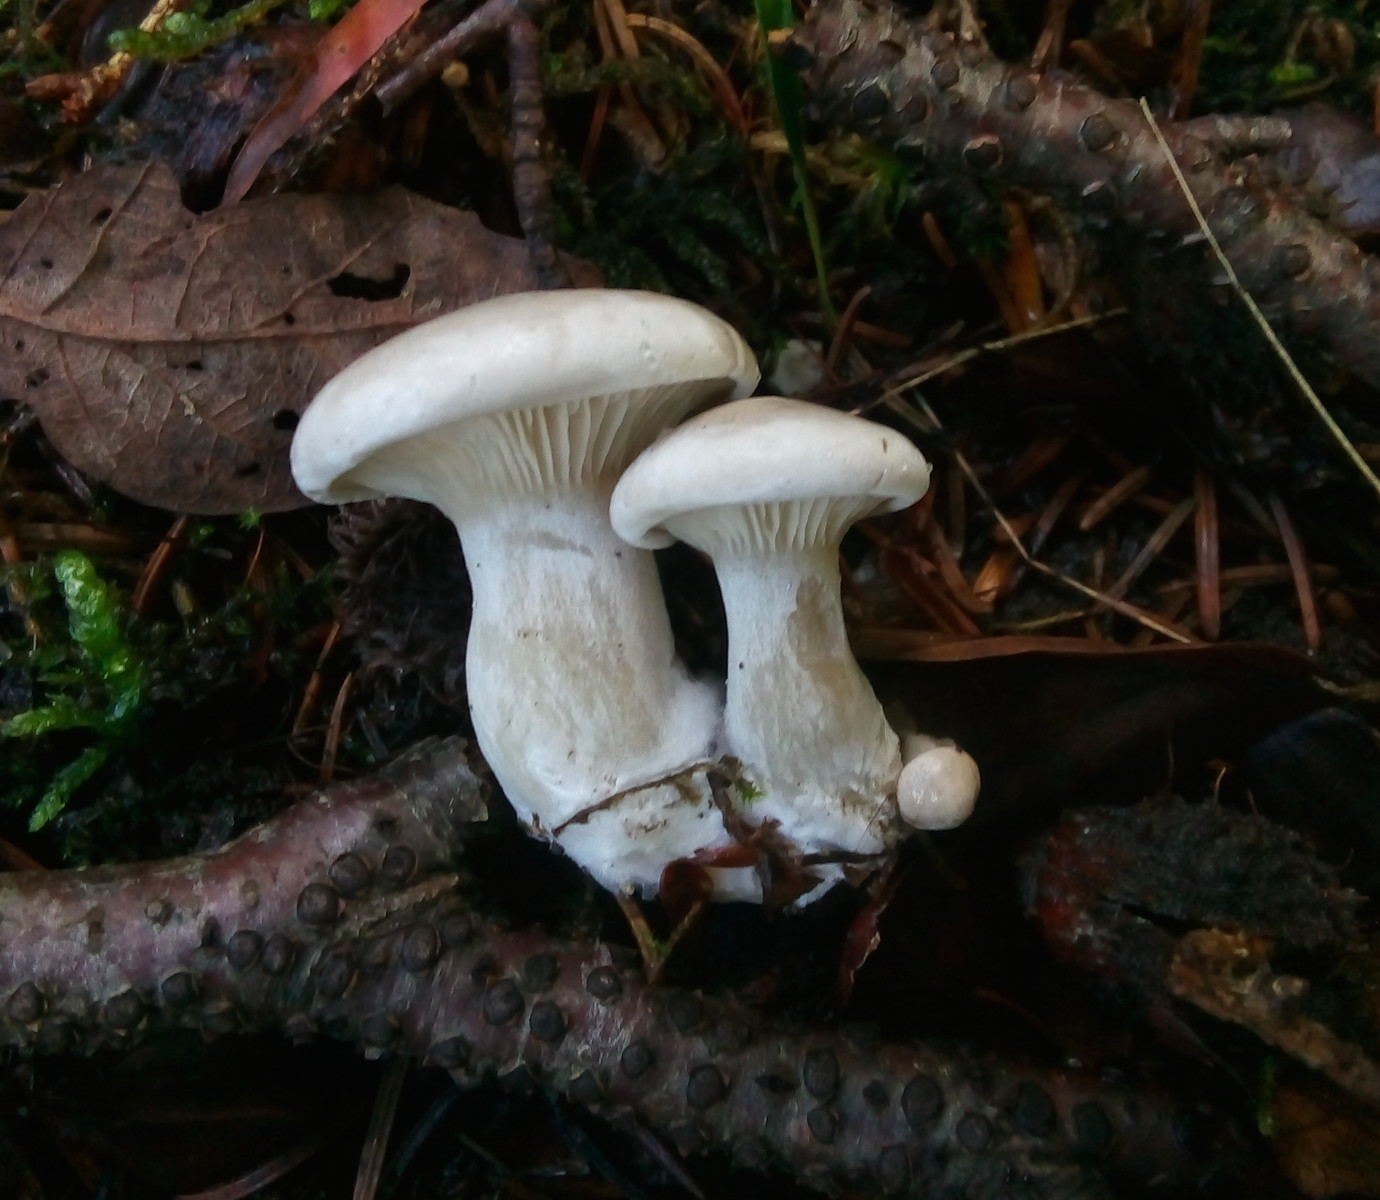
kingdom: Fungi
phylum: Basidiomycota
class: Agaricomycetes
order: Agaricales
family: Entolomataceae
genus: Clitopilus
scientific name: Clitopilus prunulus
